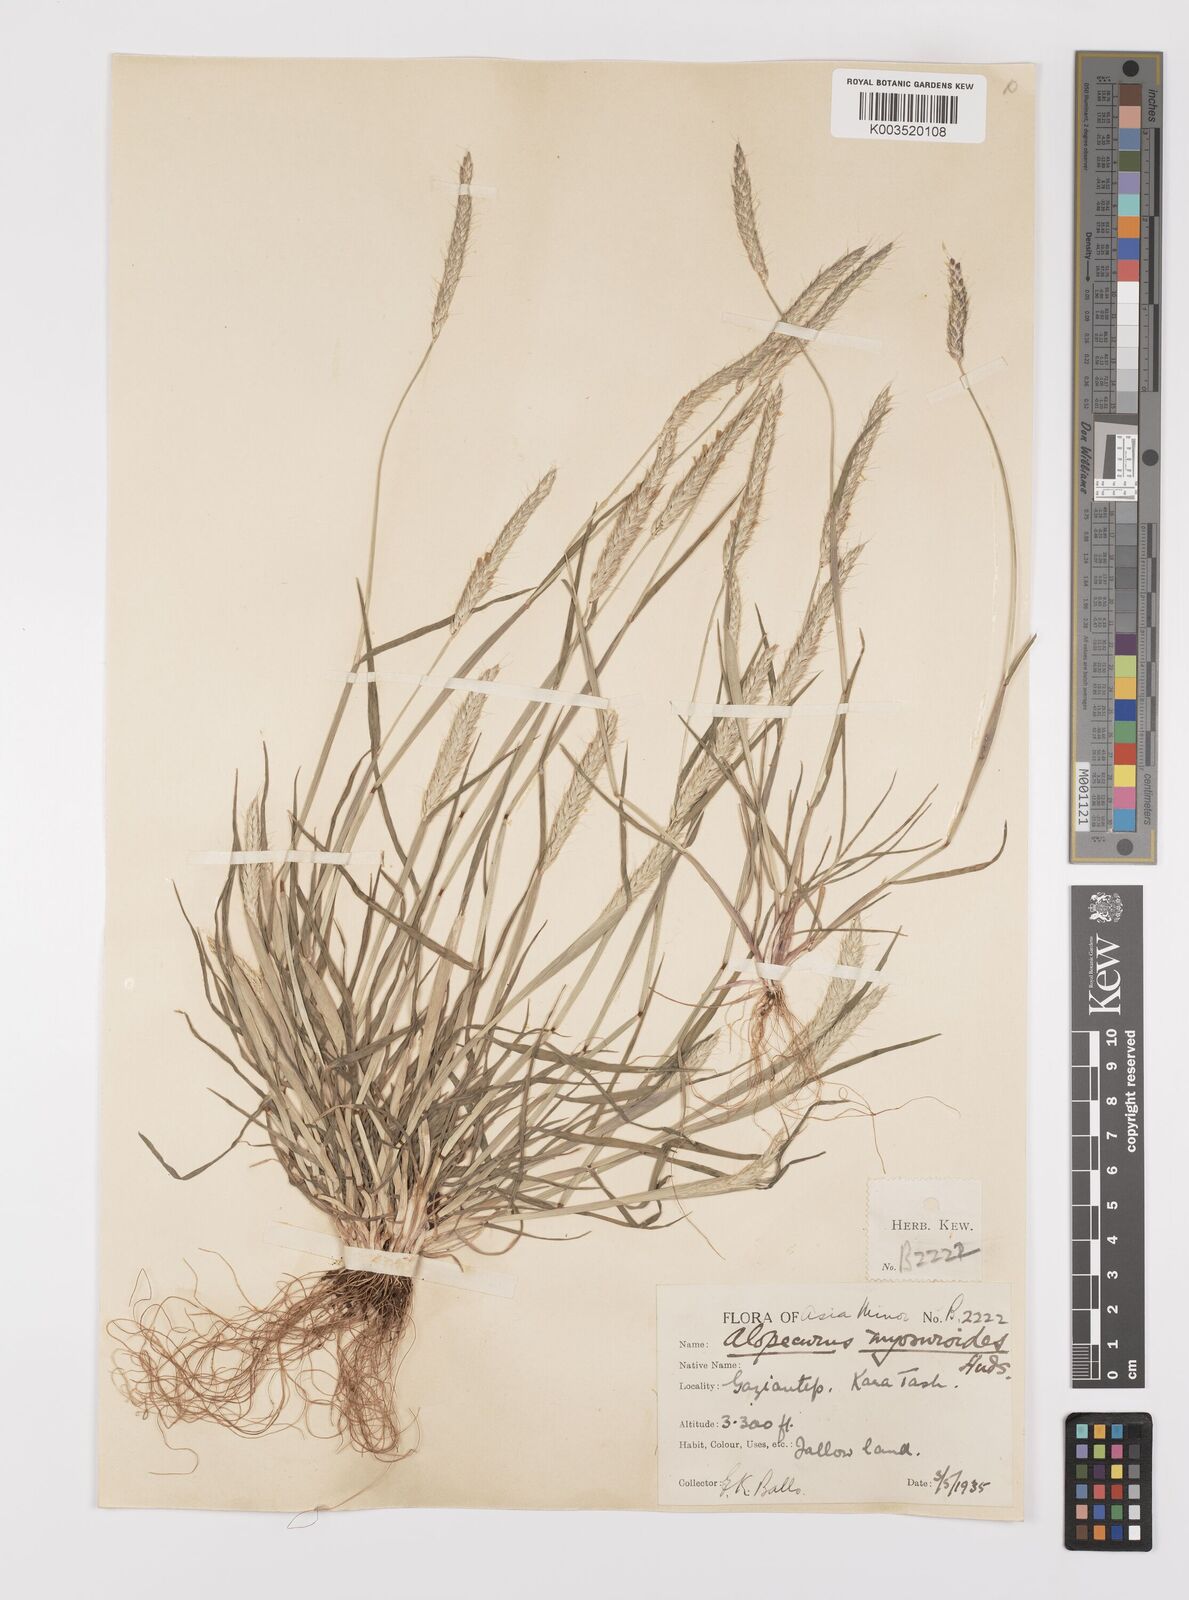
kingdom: Plantae
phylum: Tracheophyta
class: Liliopsida
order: Poales
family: Poaceae
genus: Alopecurus
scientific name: Alopecurus myosuroides
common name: Black-grass
